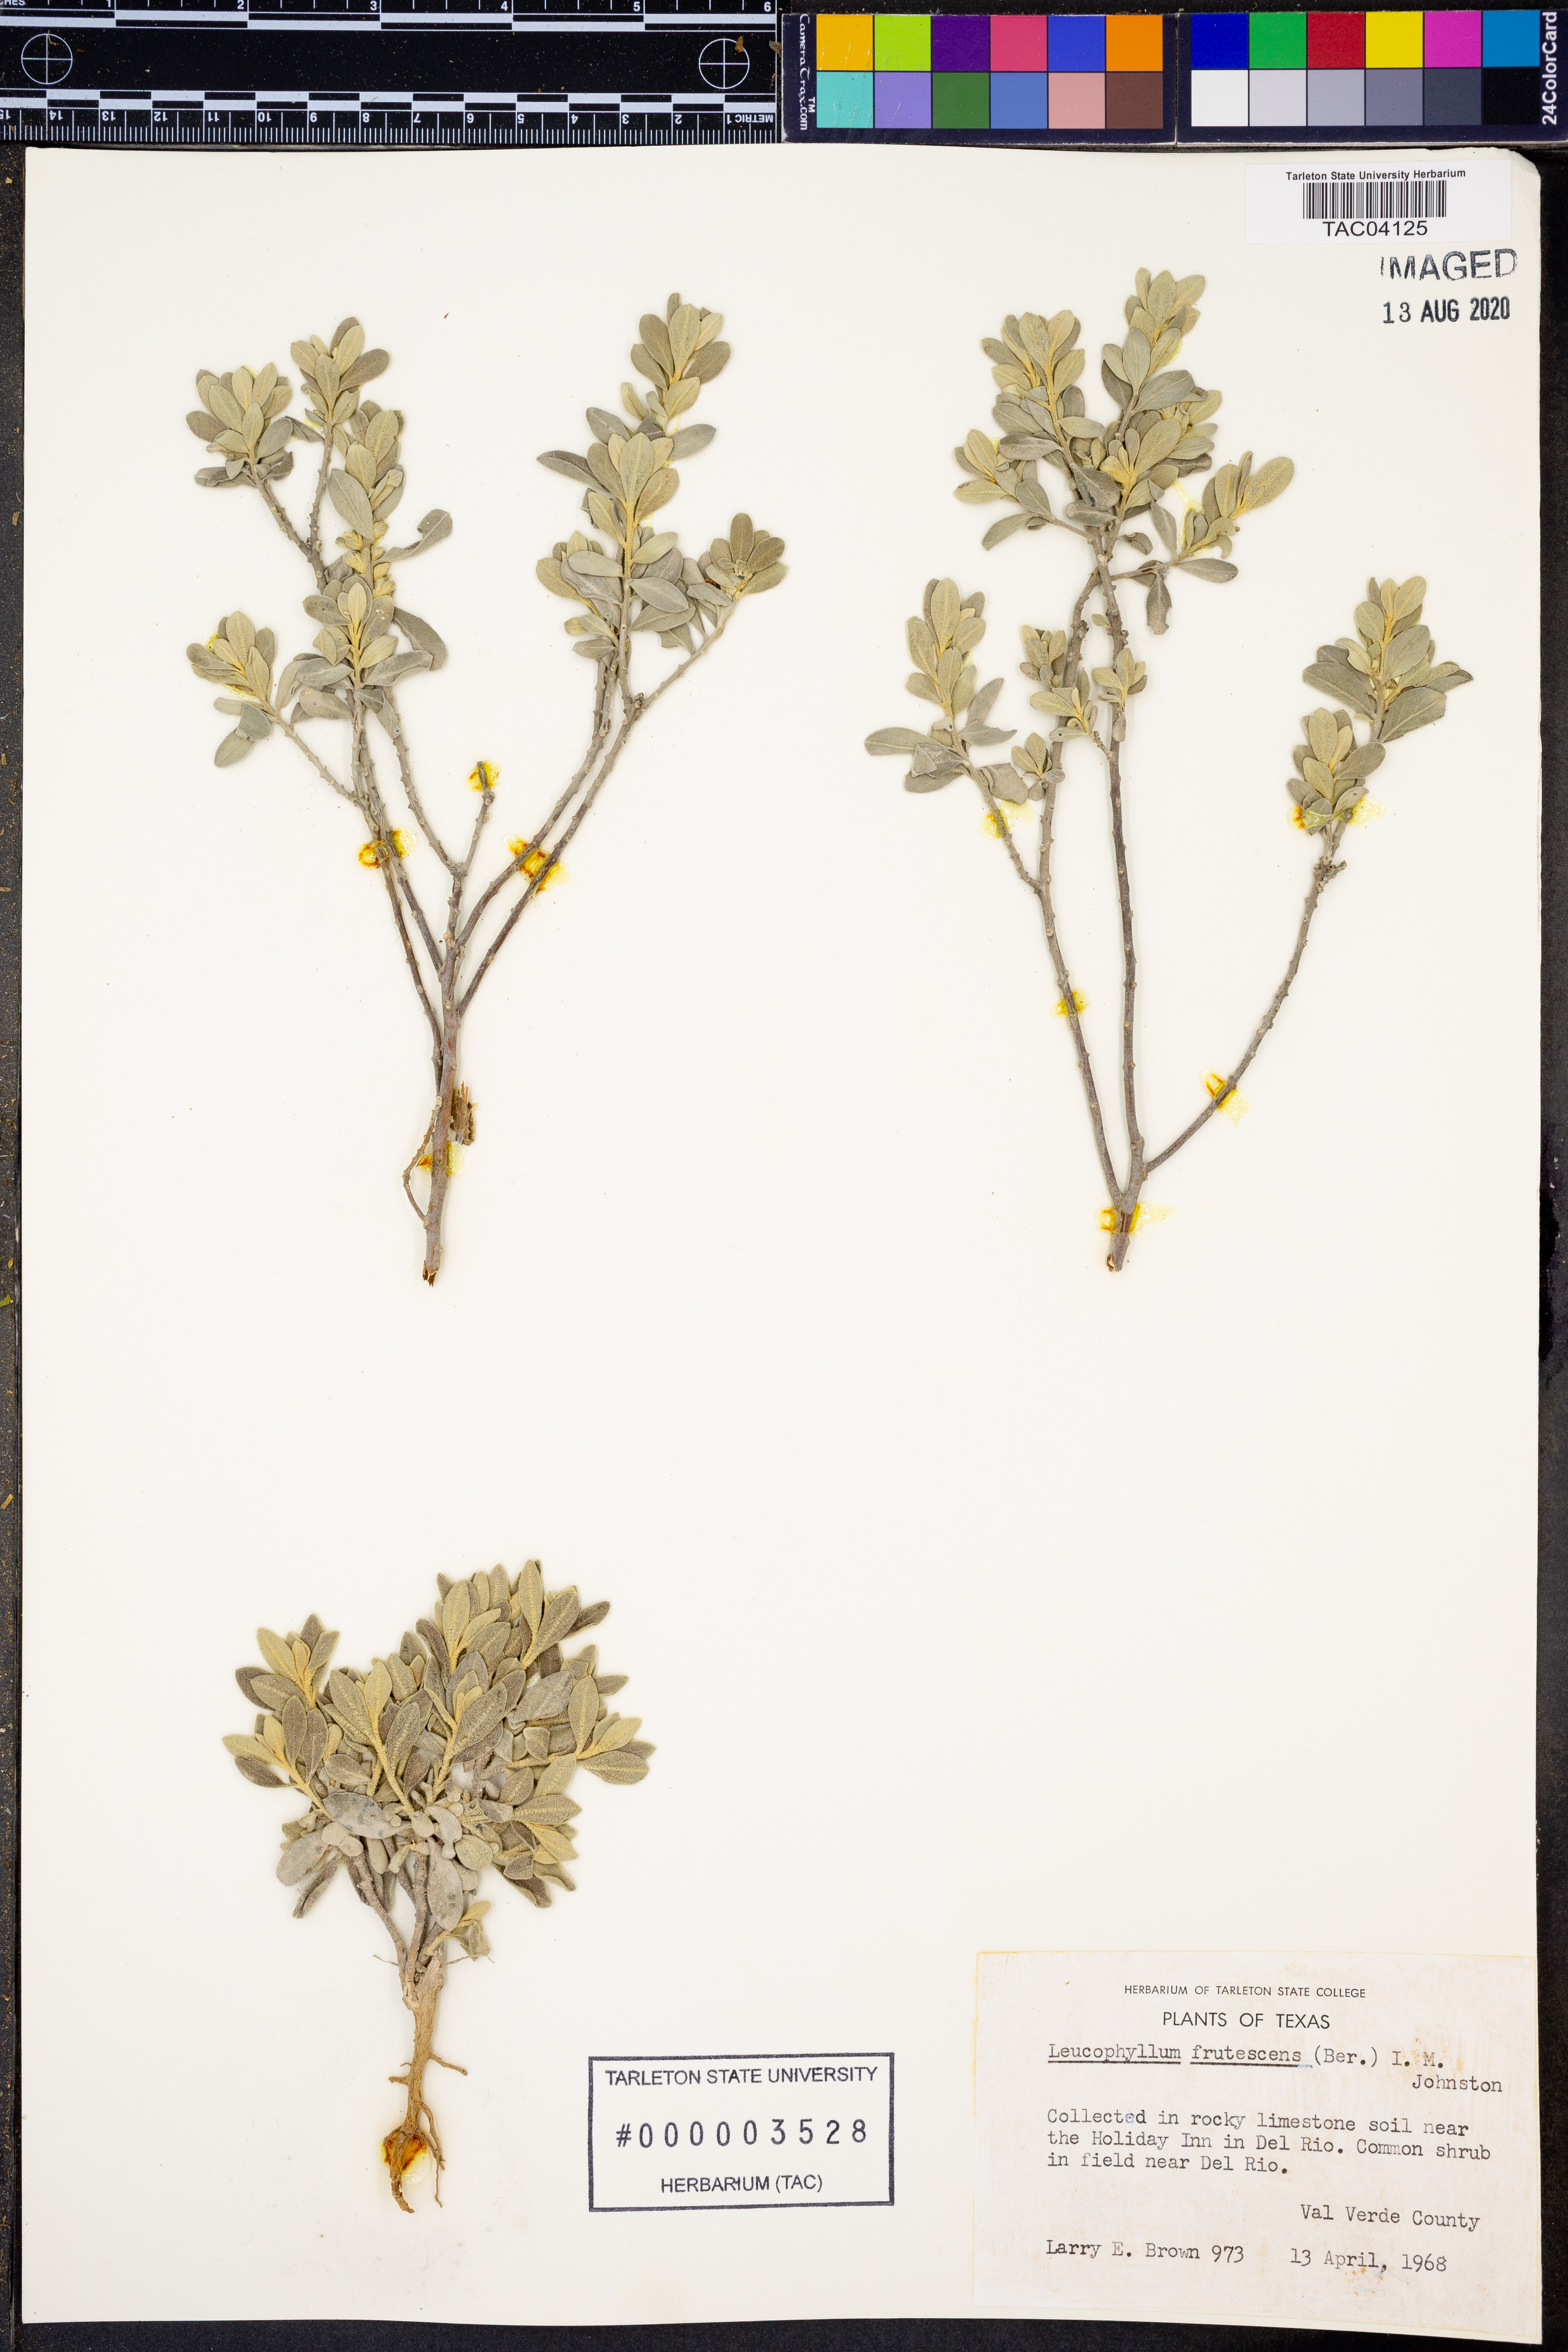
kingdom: Plantae
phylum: Tracheophyta
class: Magnoliopsida
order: Lamiales
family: Scrophulariaceae
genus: Leucophyllum
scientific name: Leucophyllum frutescens
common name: Texas silverleaf
